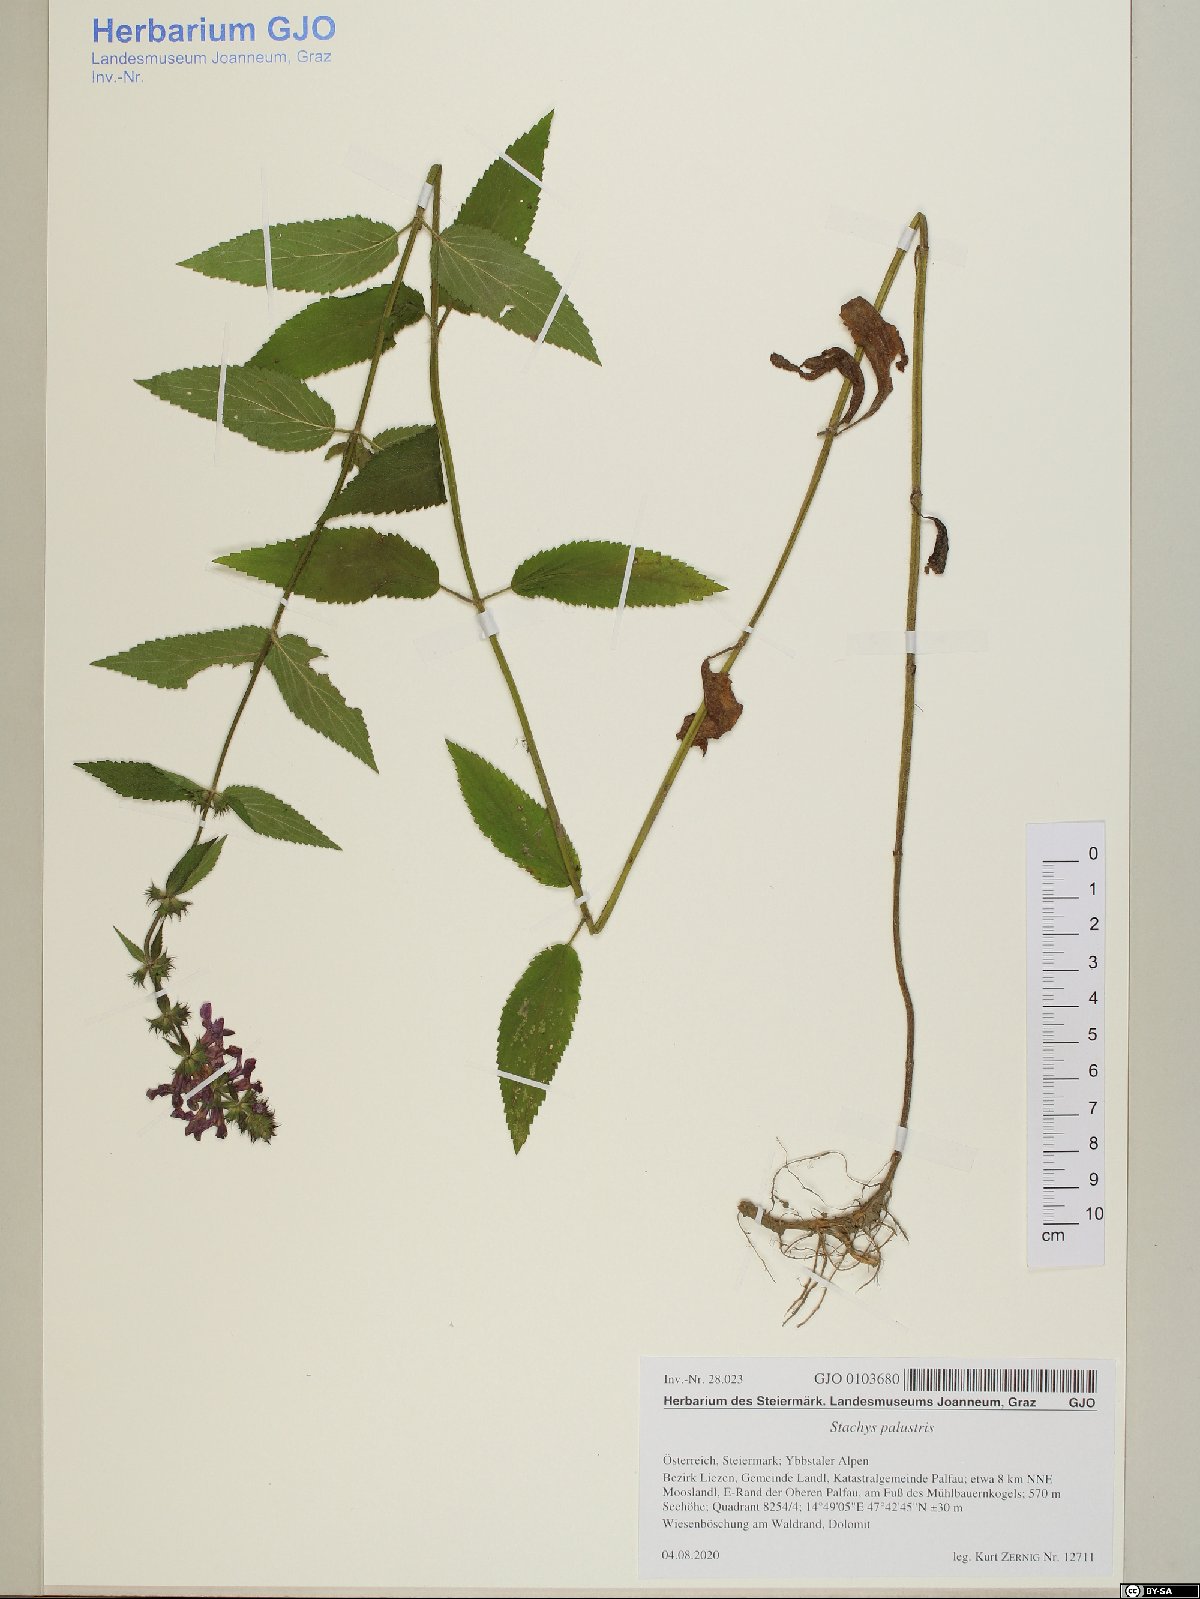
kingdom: Plantae
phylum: Tracheophyta
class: Magnoliopsida
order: Lamiales
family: Lamiaceae
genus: Stachys
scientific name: Stachys palustris
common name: Marsh woundwort
